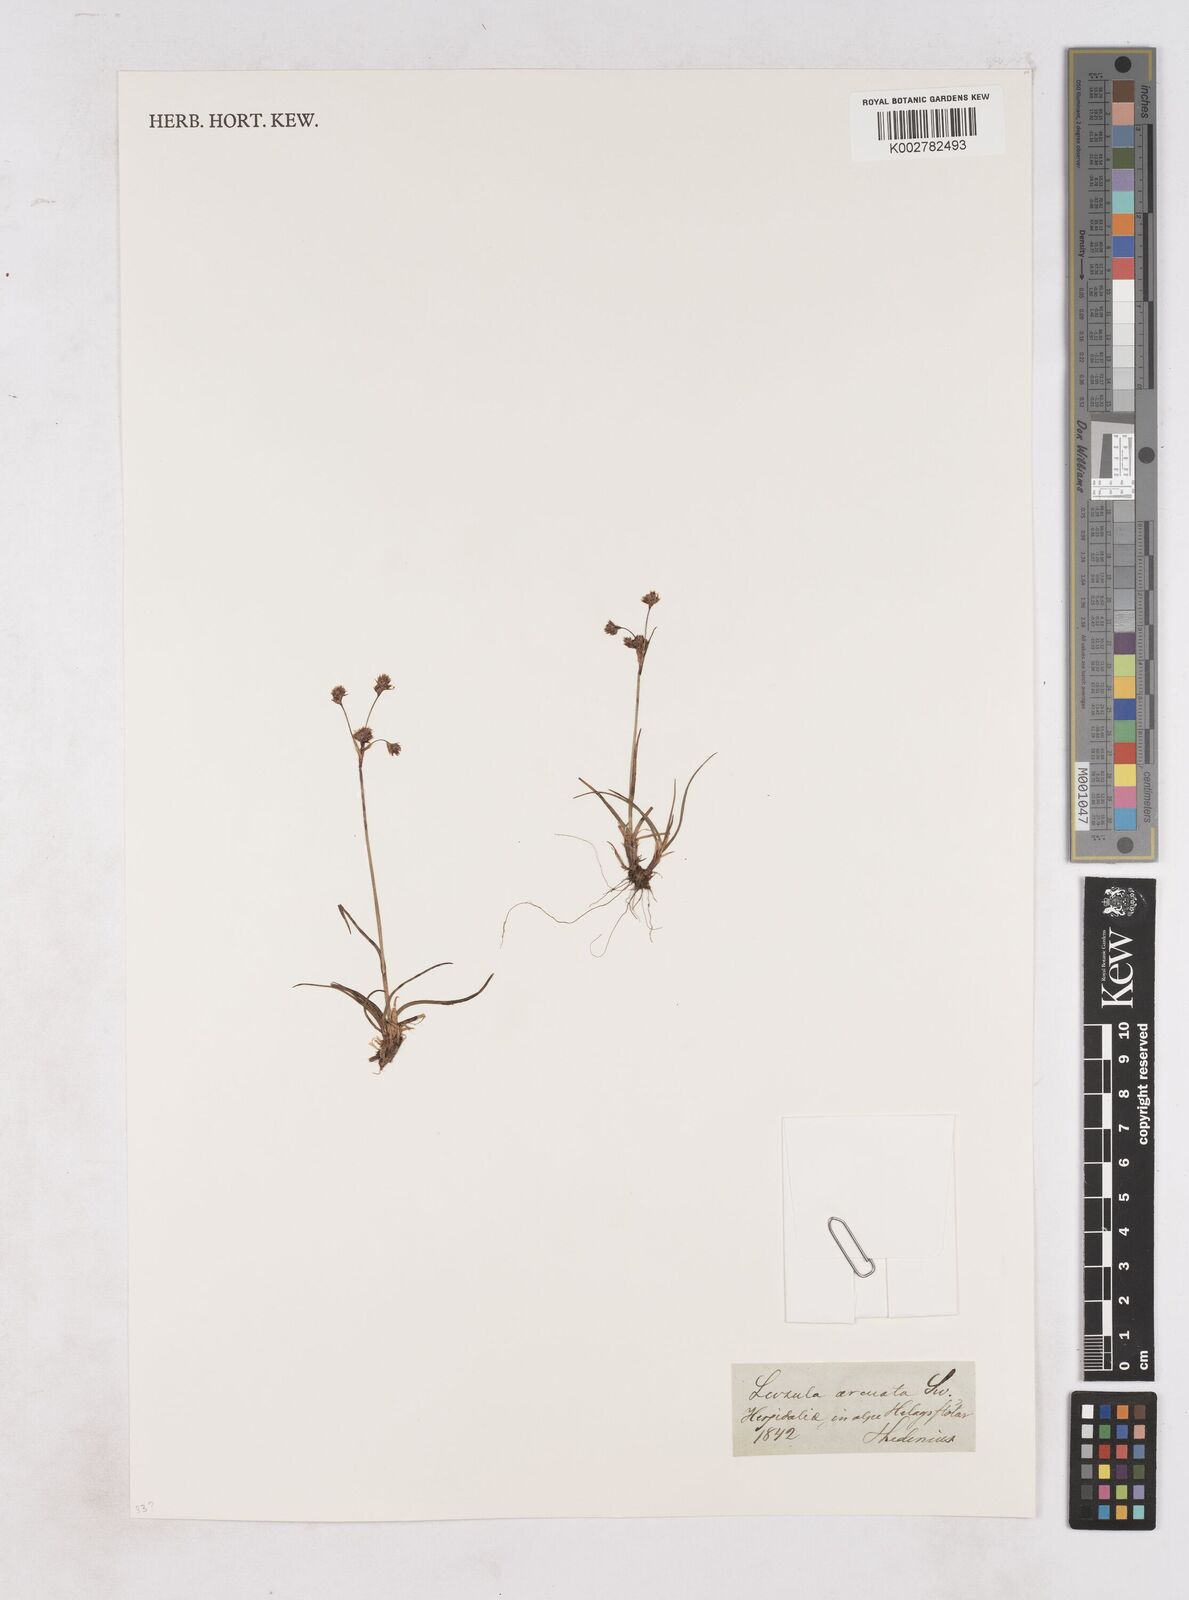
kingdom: Plantae
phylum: Tracheophyta
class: Liliopsida
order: Poales
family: Juncaceae
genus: Luzula
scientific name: Luzula arcuata
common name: Curved wood-rush
